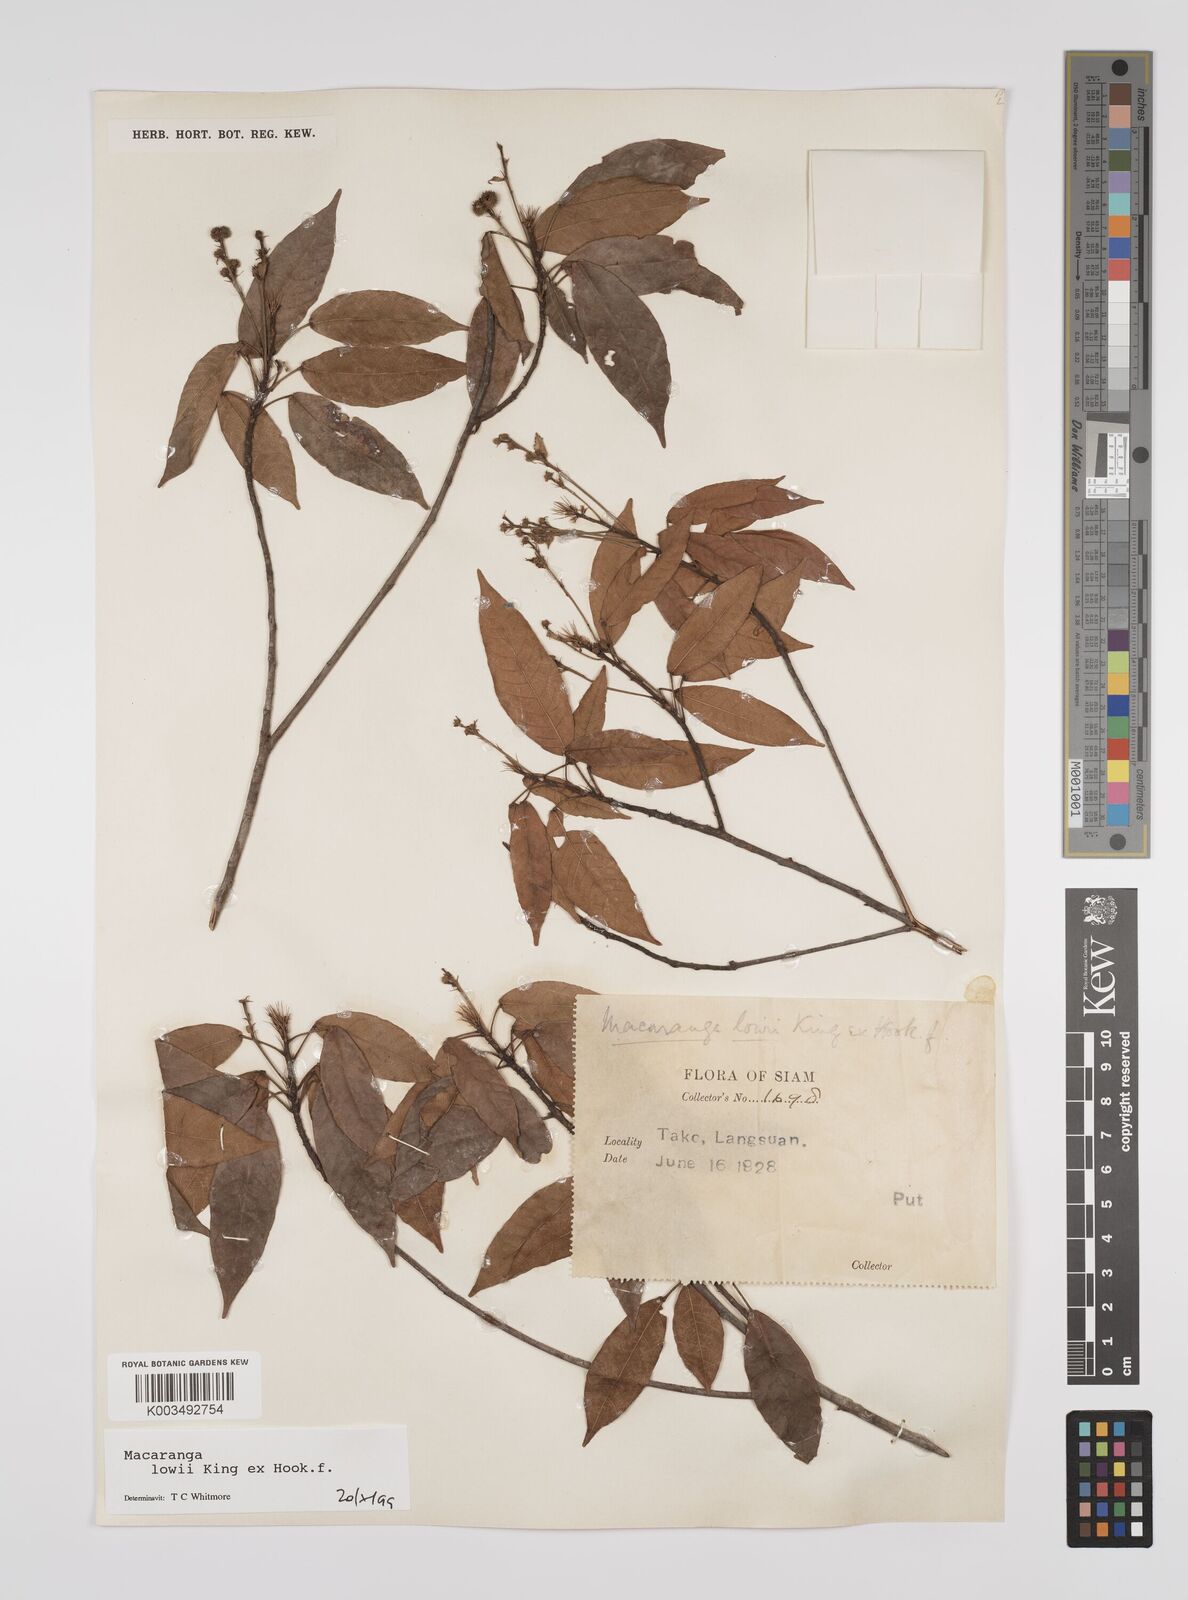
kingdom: Plantae
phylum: Tracheophyta
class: Magnoliopsida
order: Malpighiales
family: Euphorbiaceae
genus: Macaranga
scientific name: Macaranga lowii
